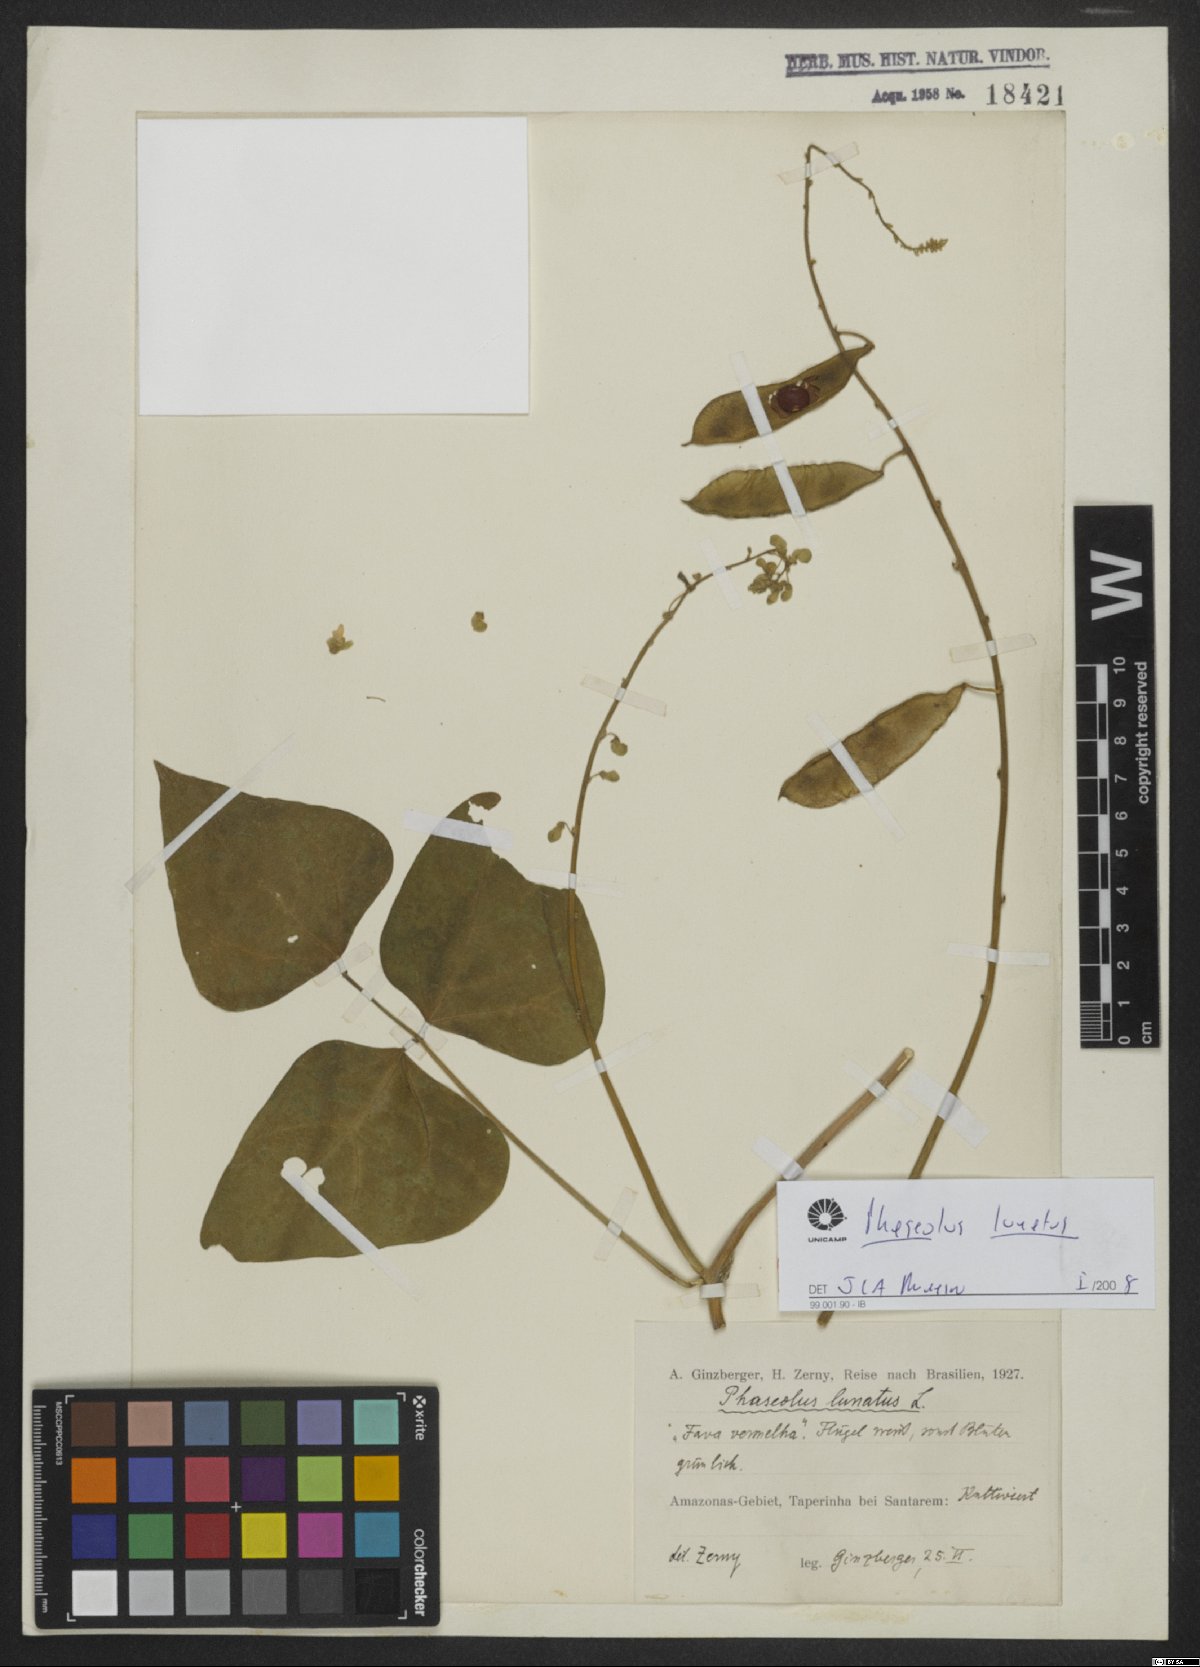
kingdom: Plantae
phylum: Tracheophyta
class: Magnoliopsida
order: Fabales
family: Fabaceae
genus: Phaseolus
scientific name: Phaseolus lunatus
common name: Sieva bean
